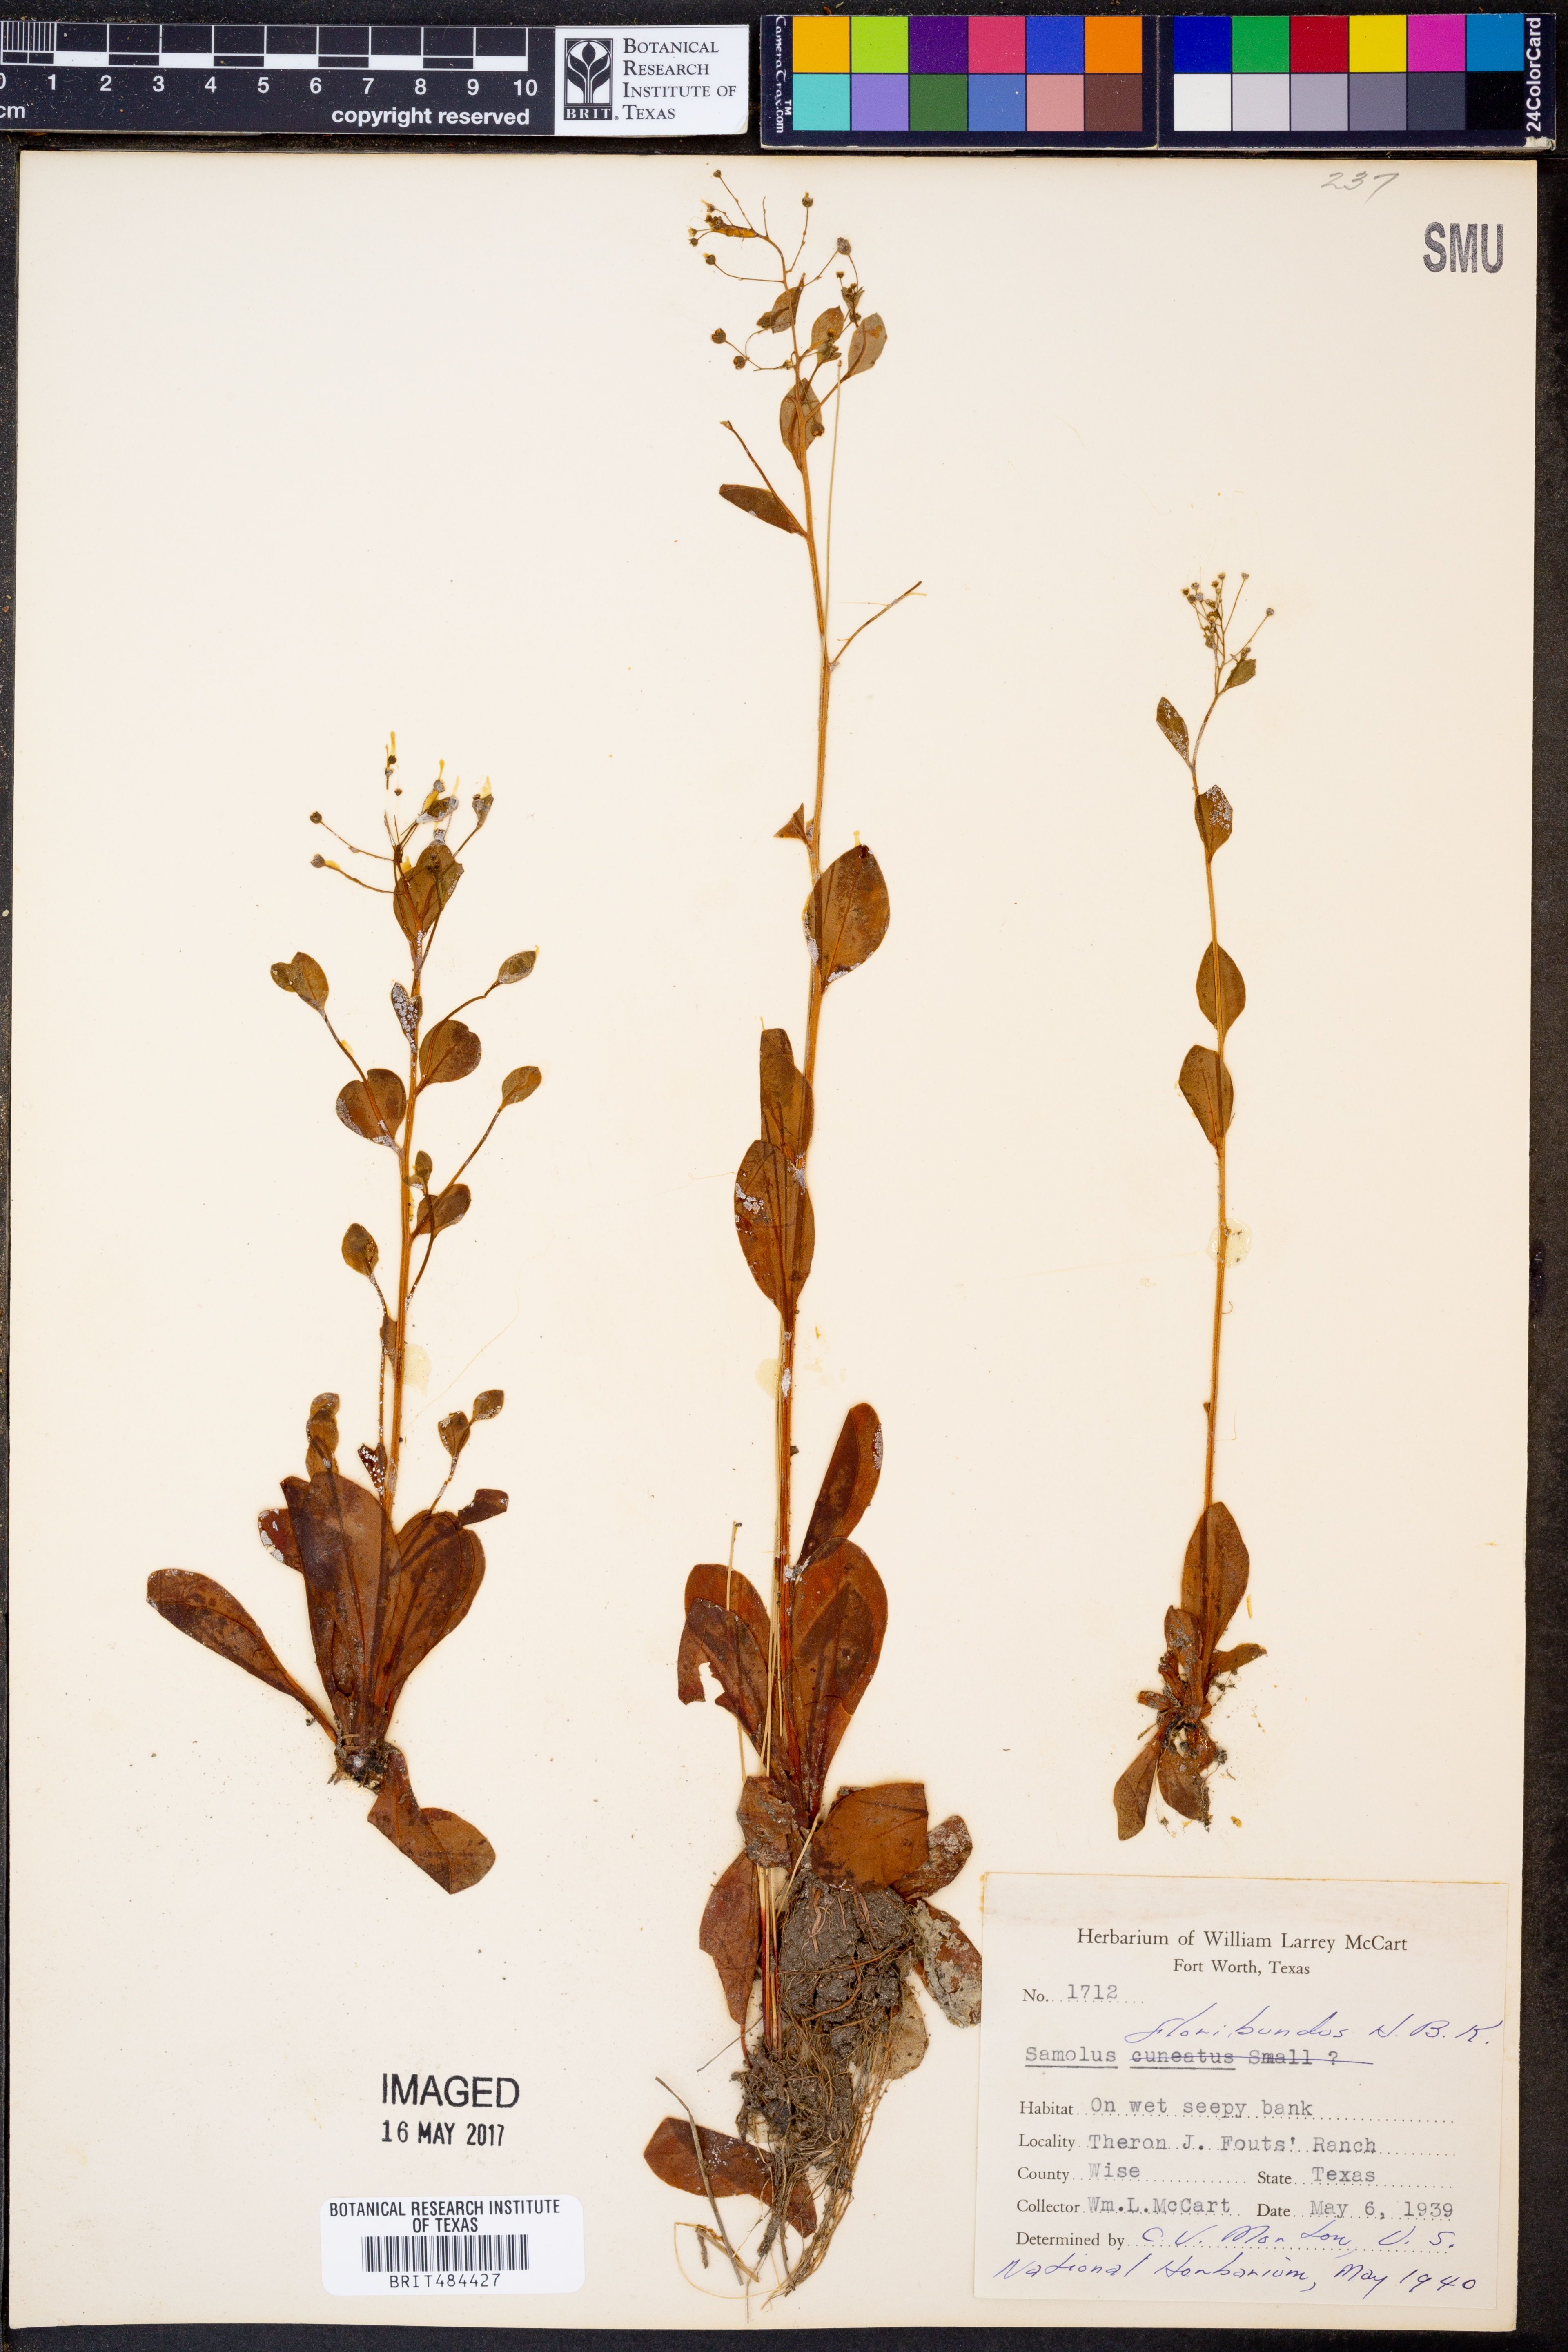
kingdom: Plantae
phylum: Tracheophyta
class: Magnoliopsida
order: Ericales
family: Primulaceae
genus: Samolus
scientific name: Samolus parviflorus
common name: False water pimpernel
